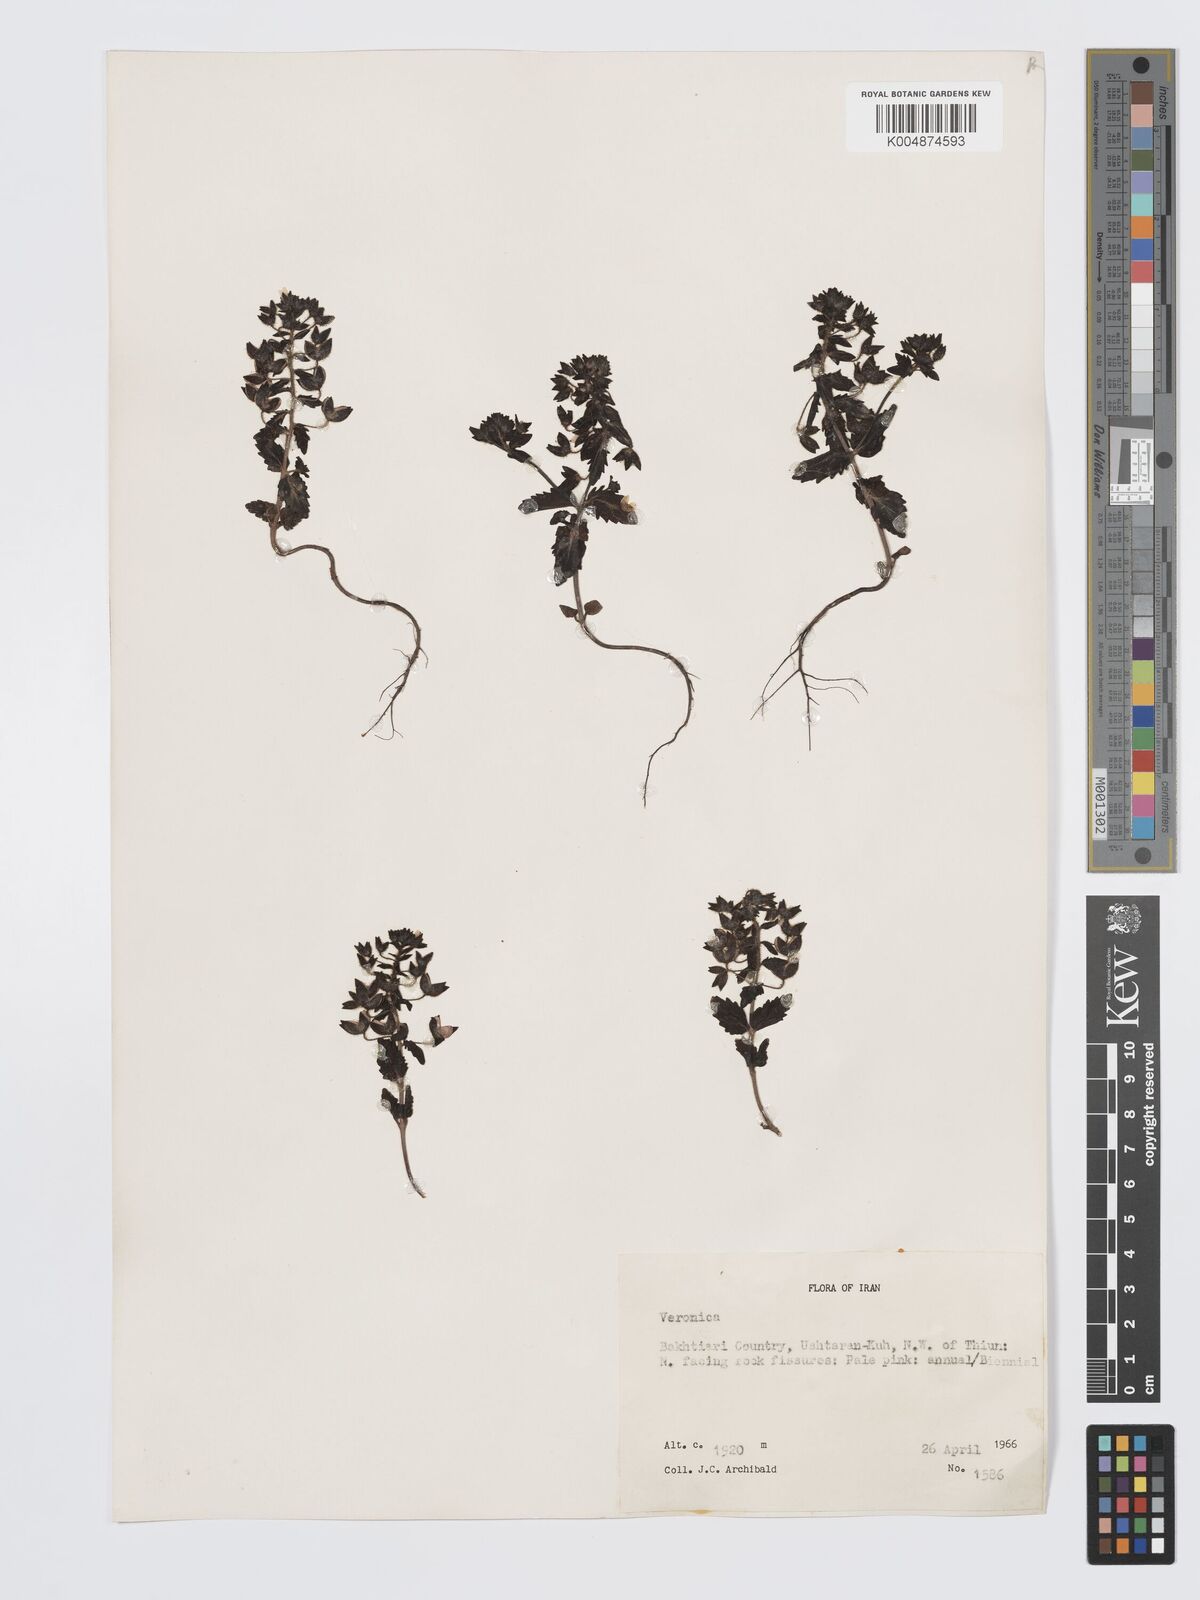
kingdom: Plantae
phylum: Tracheophyta
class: Magnoliopsida
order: Lamiales
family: Plantaginaceae
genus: Veronica
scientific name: Veronica
